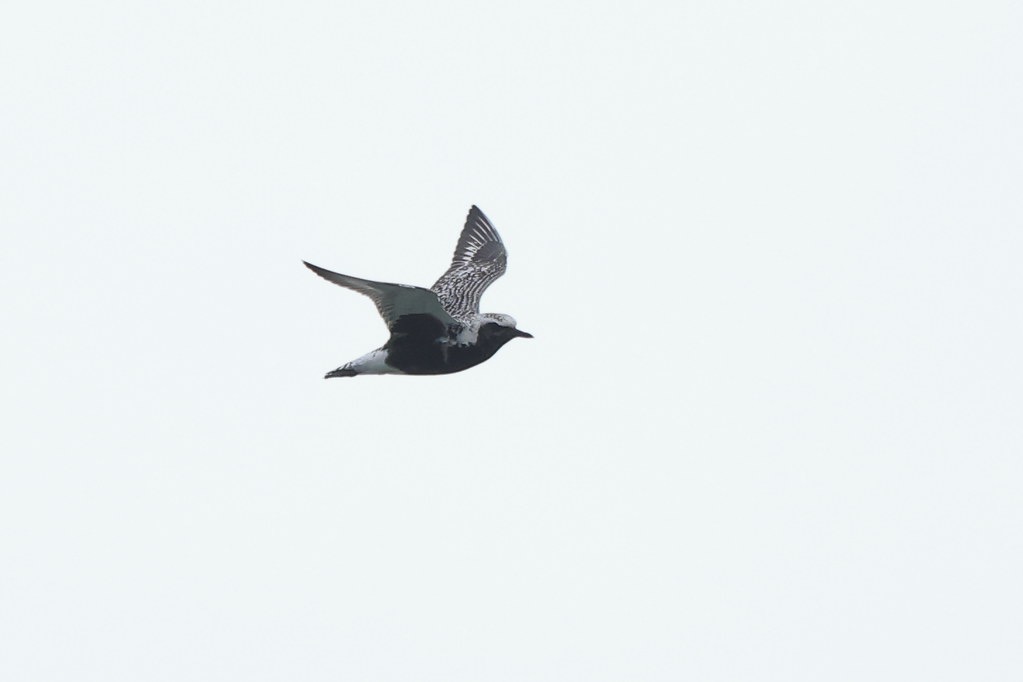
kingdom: Animalia
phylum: Chordata
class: Aves
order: Charadriiformes
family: Charadriidae
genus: Pluvialis
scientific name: Pluvialis squatarola
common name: Strandhjejle
